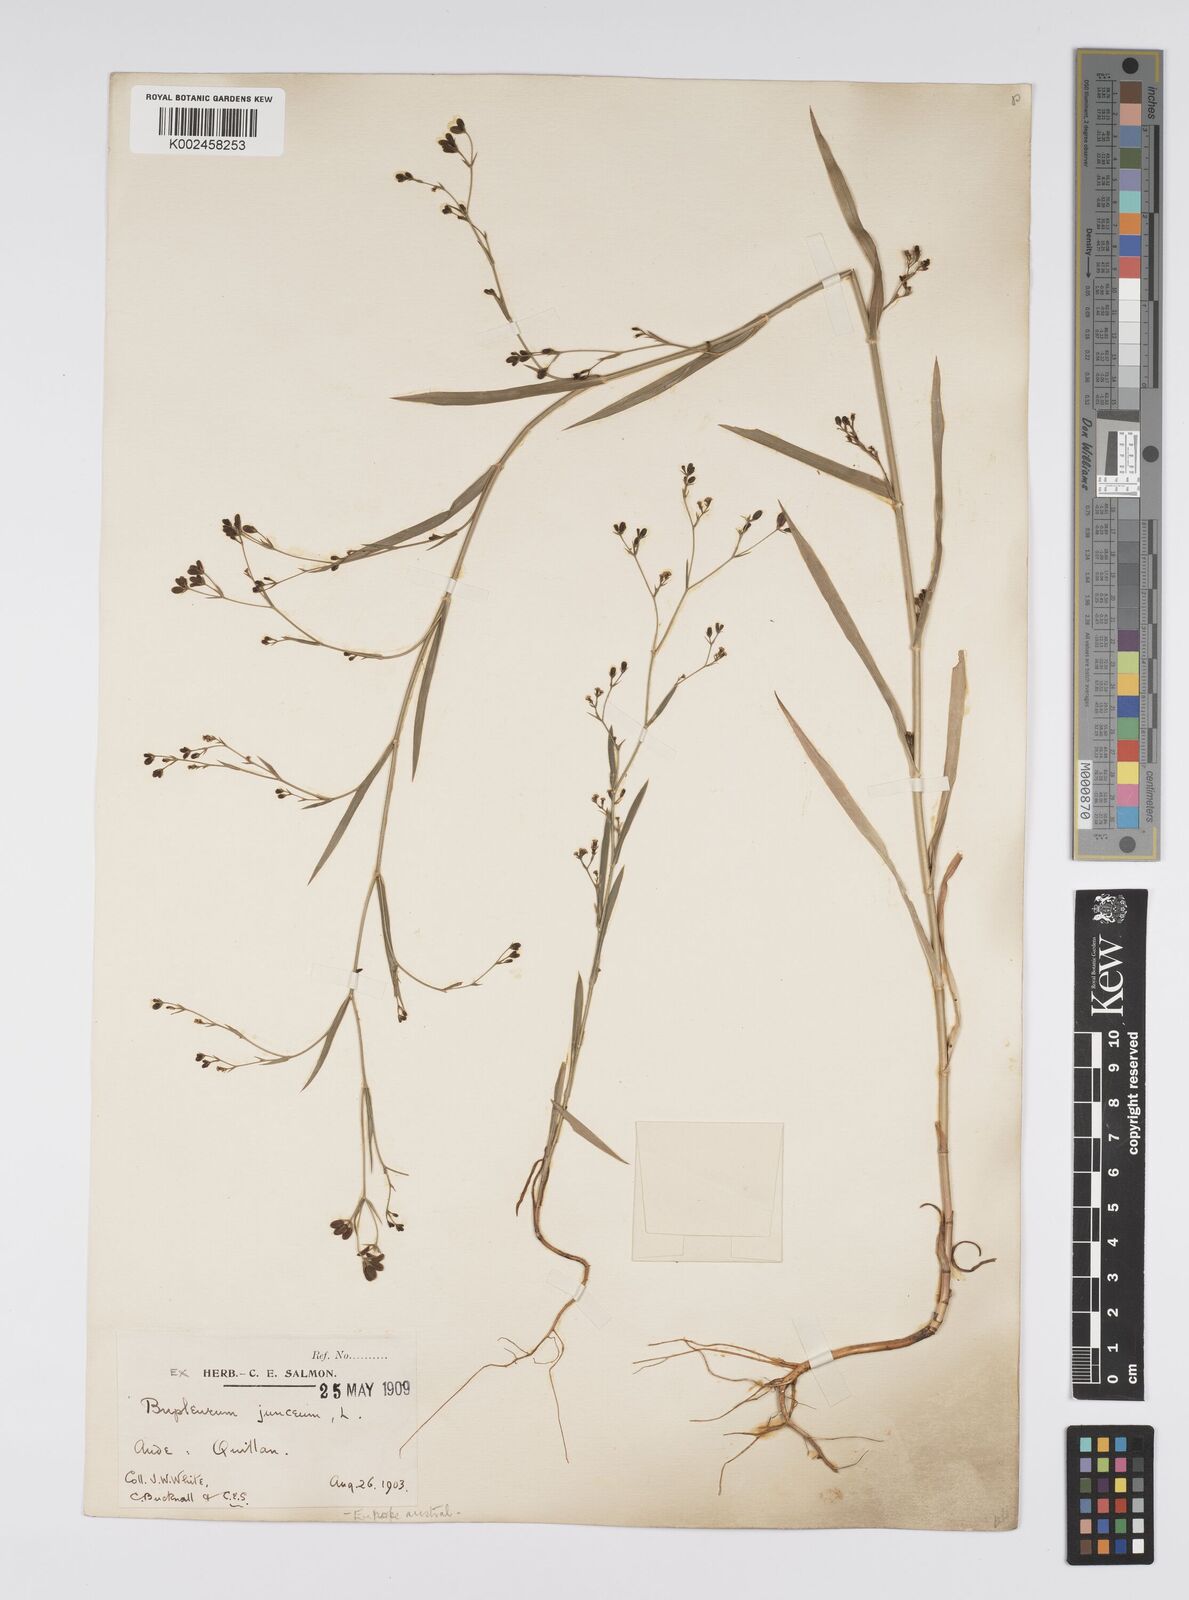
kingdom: Plantae
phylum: Tracheophyta
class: Magnoliopsida
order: Apiales
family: Apiaceae
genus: Bupleurum
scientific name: Bupleurum praealtum
